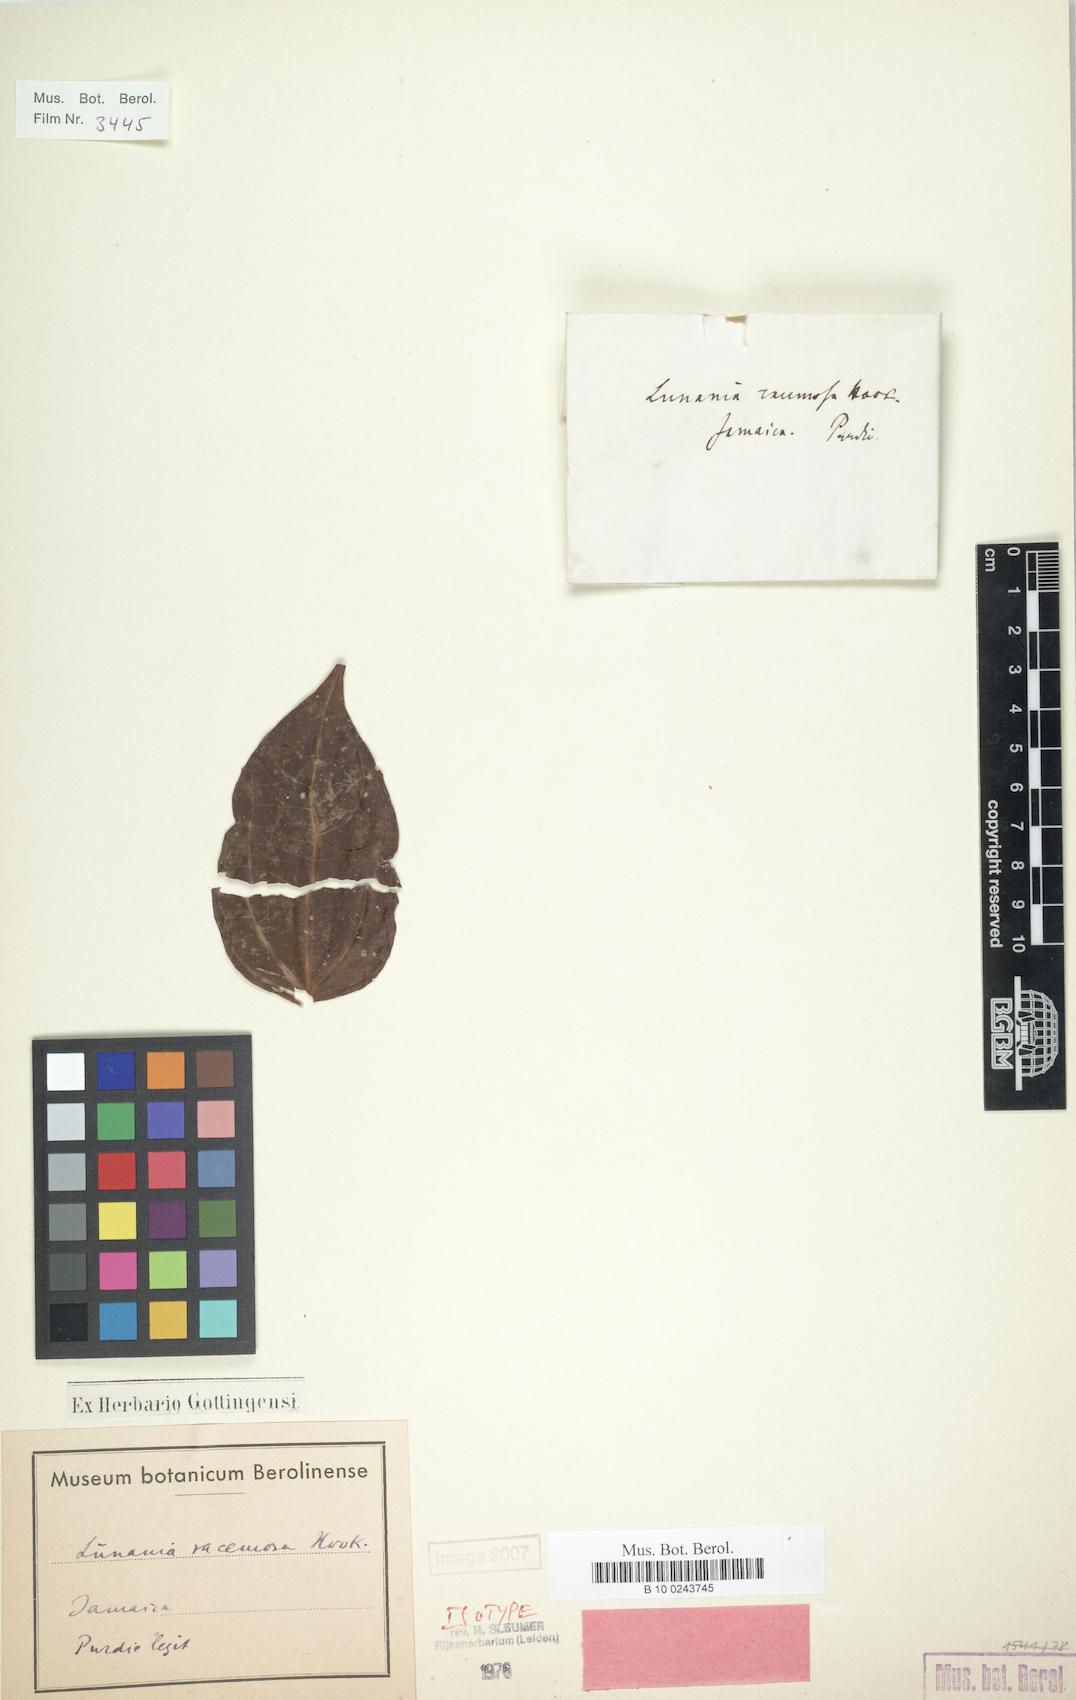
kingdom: Plantae
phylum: Tracheophyta
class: Magnoliopsida
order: Malpighiales
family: Salicaceae
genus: Lunania
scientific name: Lunania racemosa
